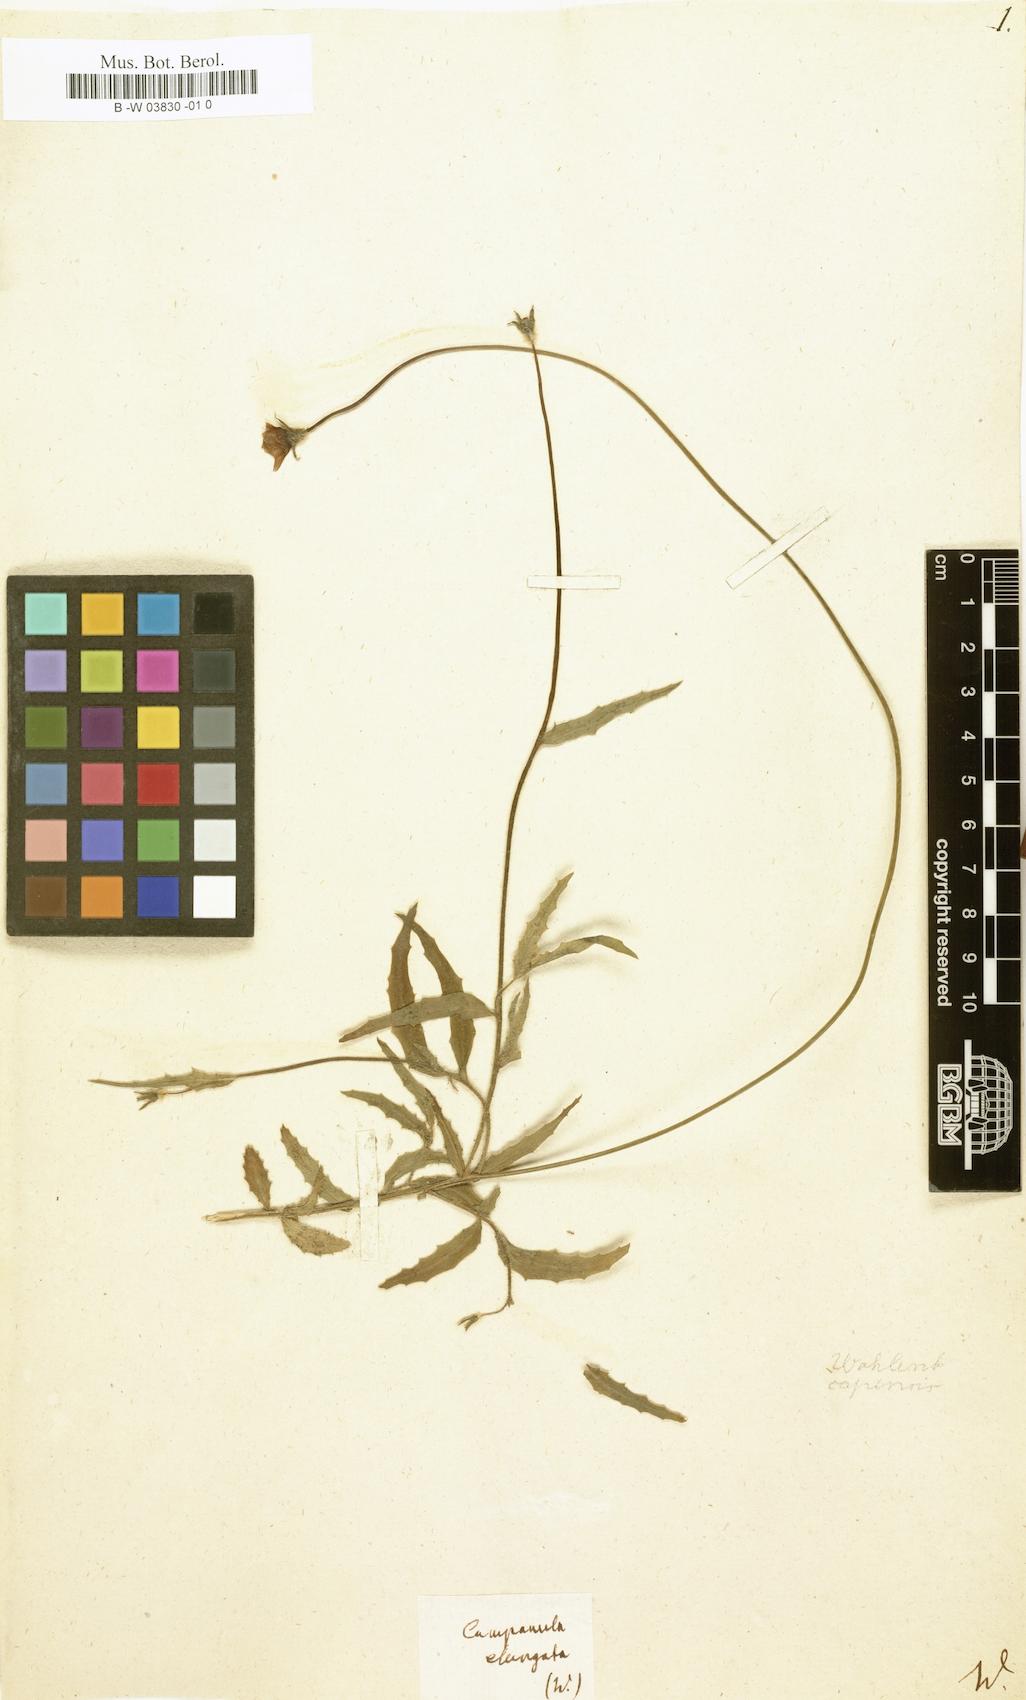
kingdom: Plantae
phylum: Tracheophyta
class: Magnoliopsida
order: Asterales
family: Campanulaceae
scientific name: Campanulaceae
